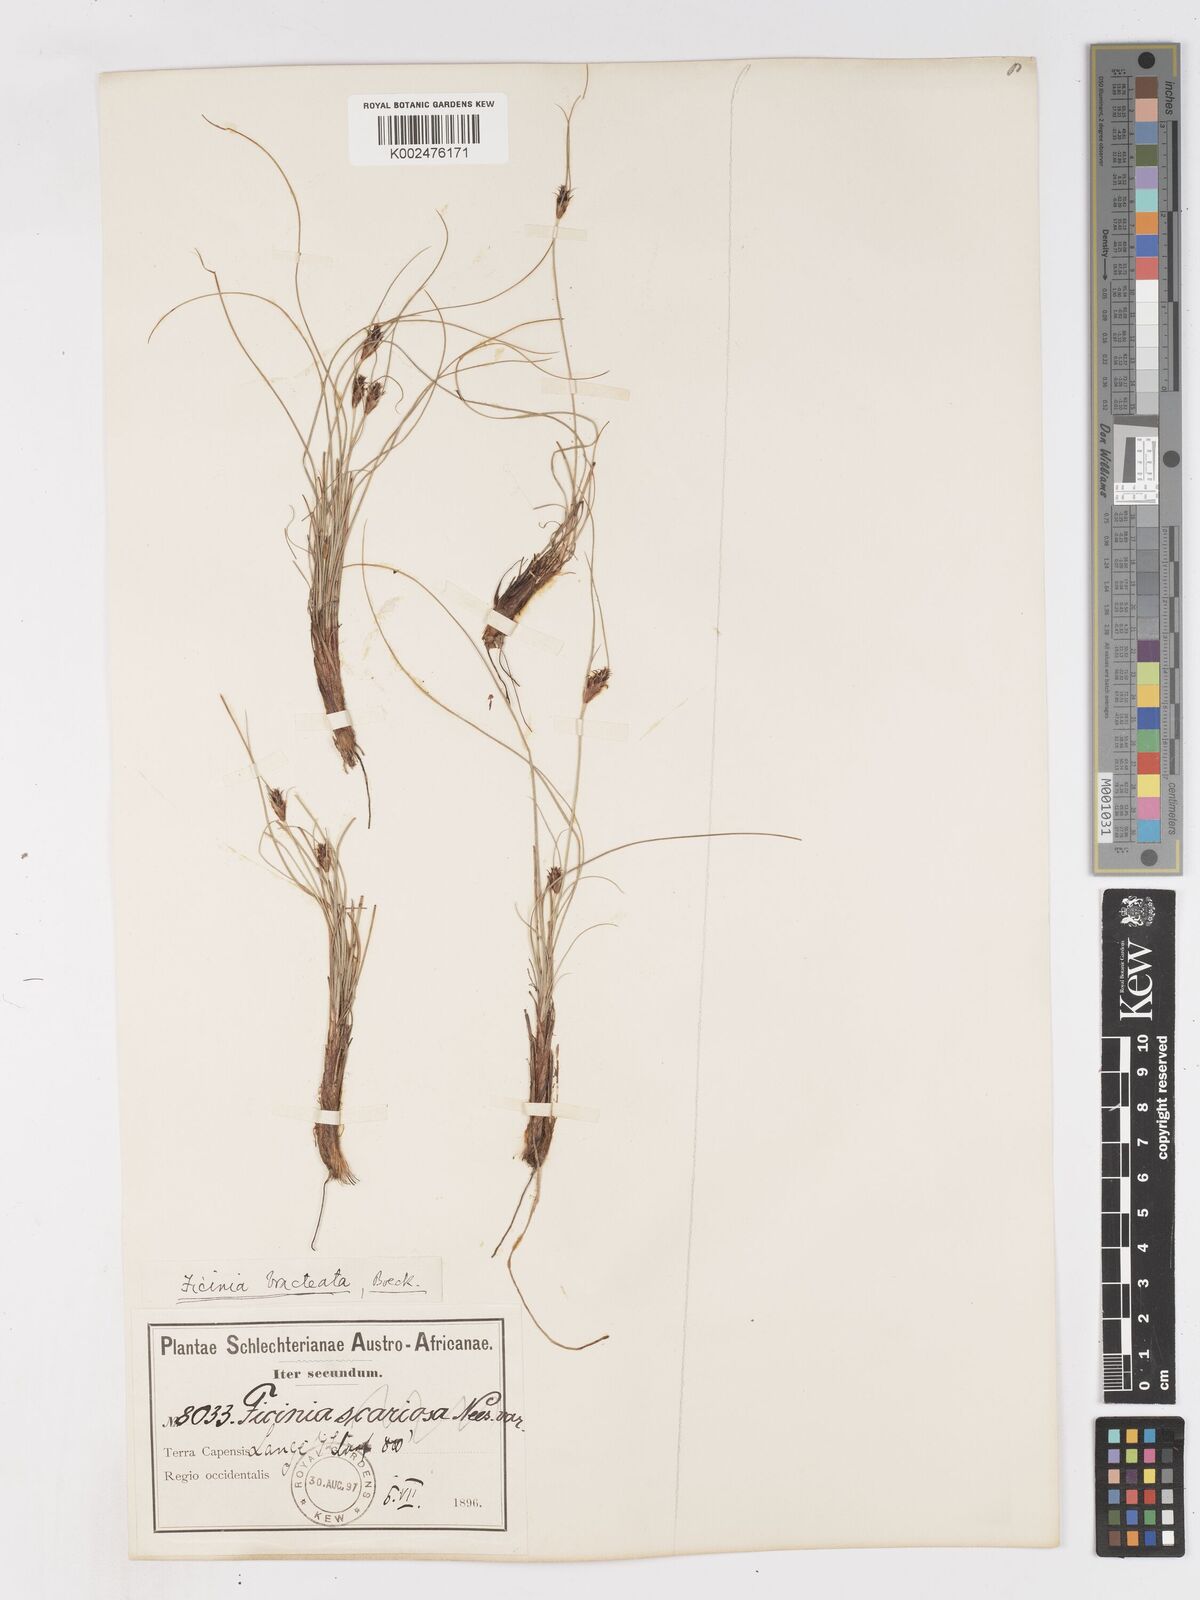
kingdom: Plantae
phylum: Tracheophyta
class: Liliopsida
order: Poales
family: Cyperaceae
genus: Ficinia
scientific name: Ficinia nigrescens
